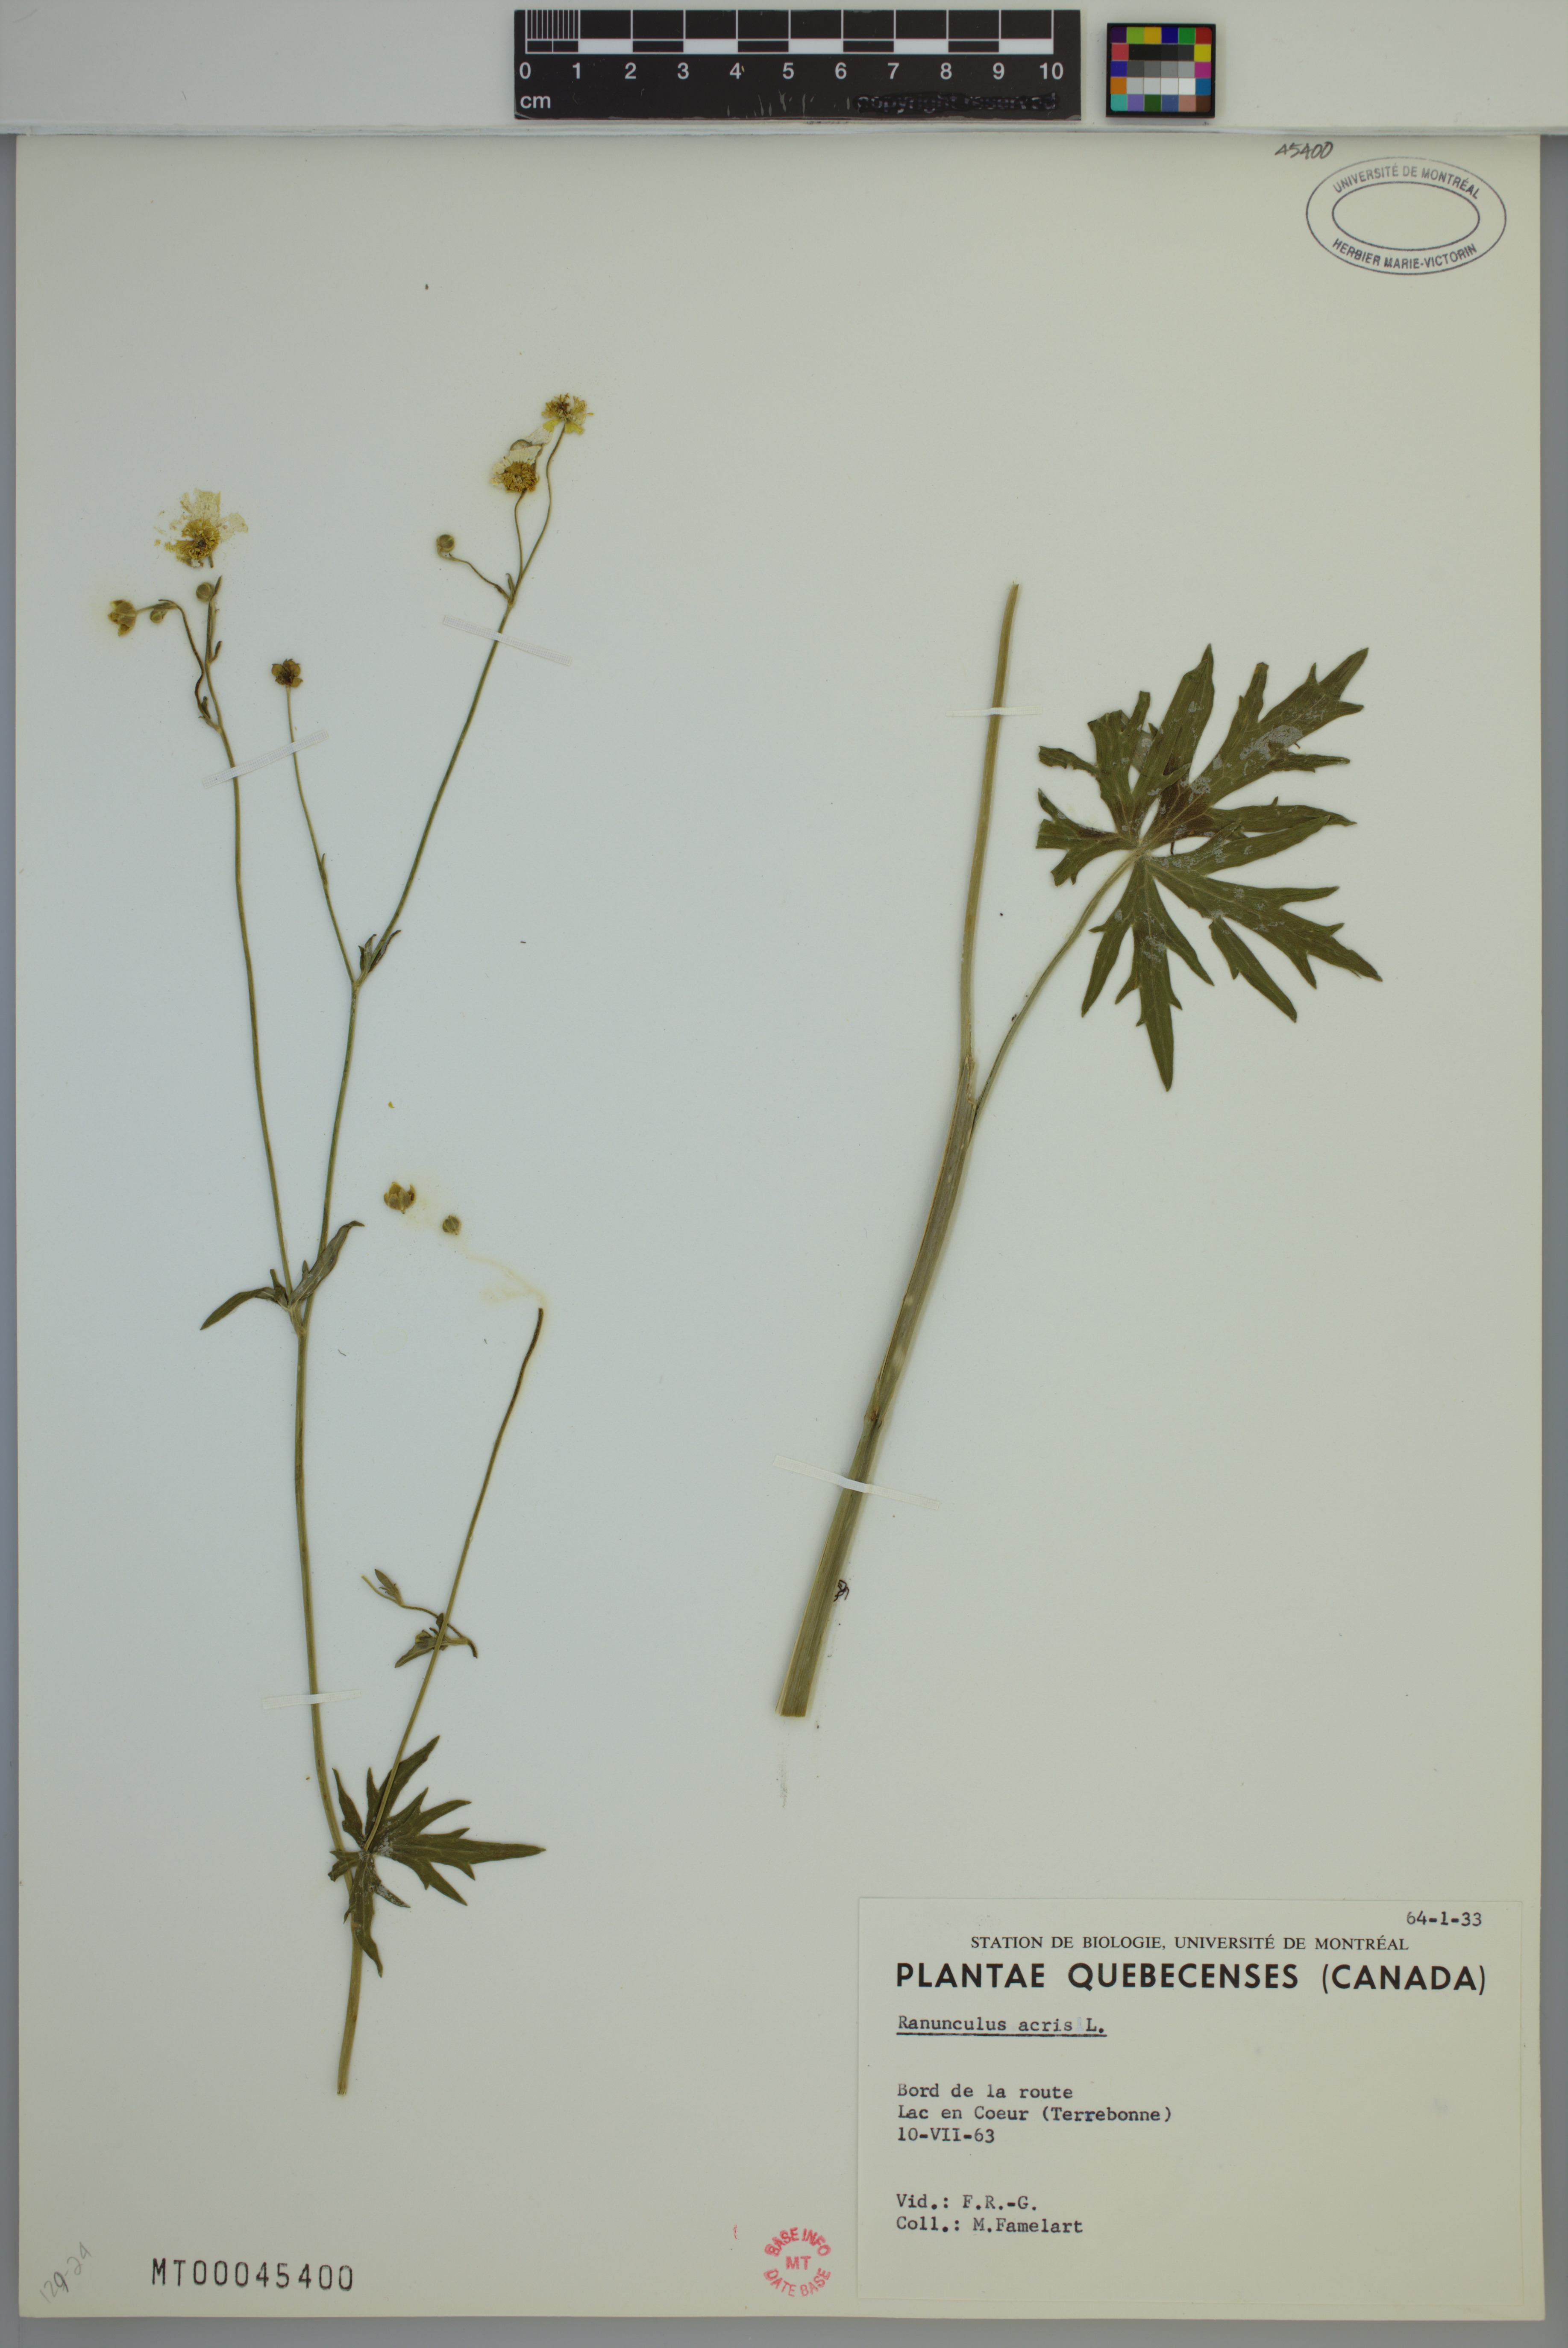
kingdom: Plantae
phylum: Tracheophyta
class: Magnoliopsida
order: Ranunculales
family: Ranunculaceae
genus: Ranunculus
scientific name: Ranunculus acris
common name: Meadow buttercup
